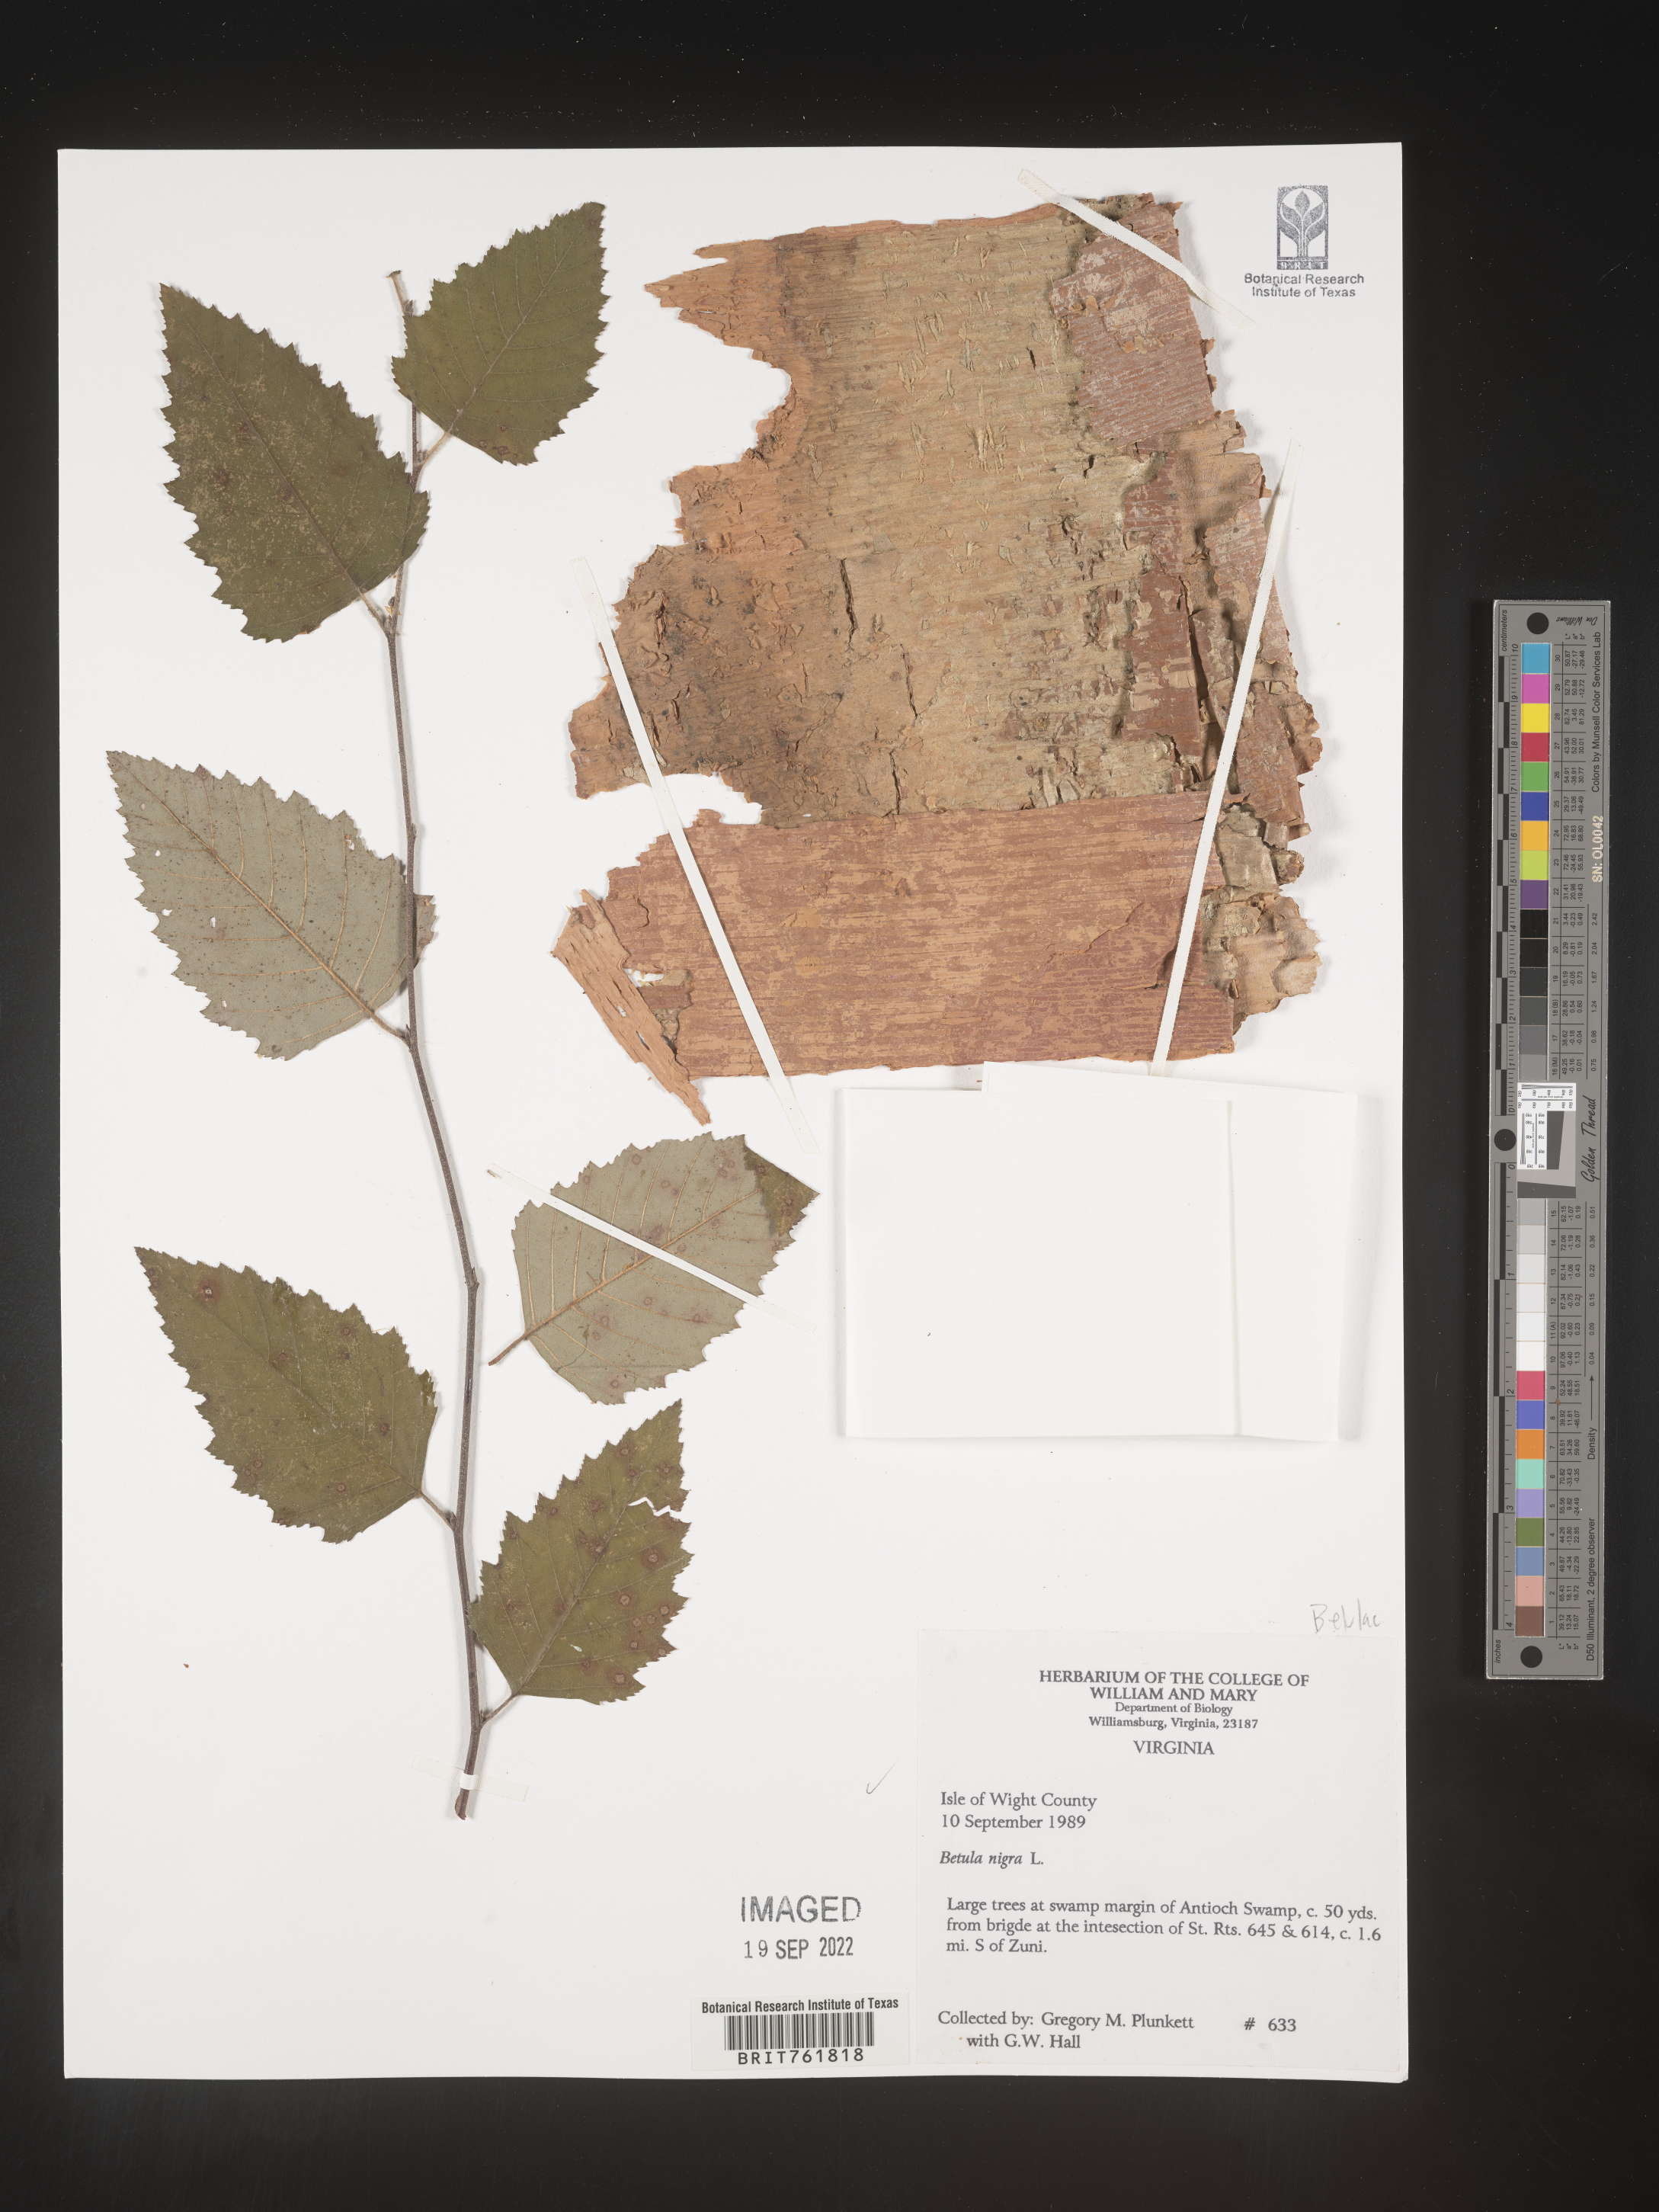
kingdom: Plantae
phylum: Tracheophyta
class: Magnoliopsida
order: Fagales
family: Betulaceae
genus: Betula
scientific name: Betula nigra
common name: Black birch
